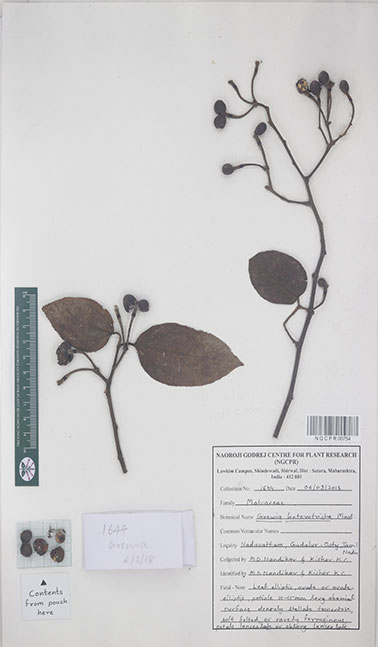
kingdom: Plantae
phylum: Tracheophyta
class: Magnoliopsida
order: Malvales
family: Malvaceae
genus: Grewia
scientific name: Grewia heterotricha
